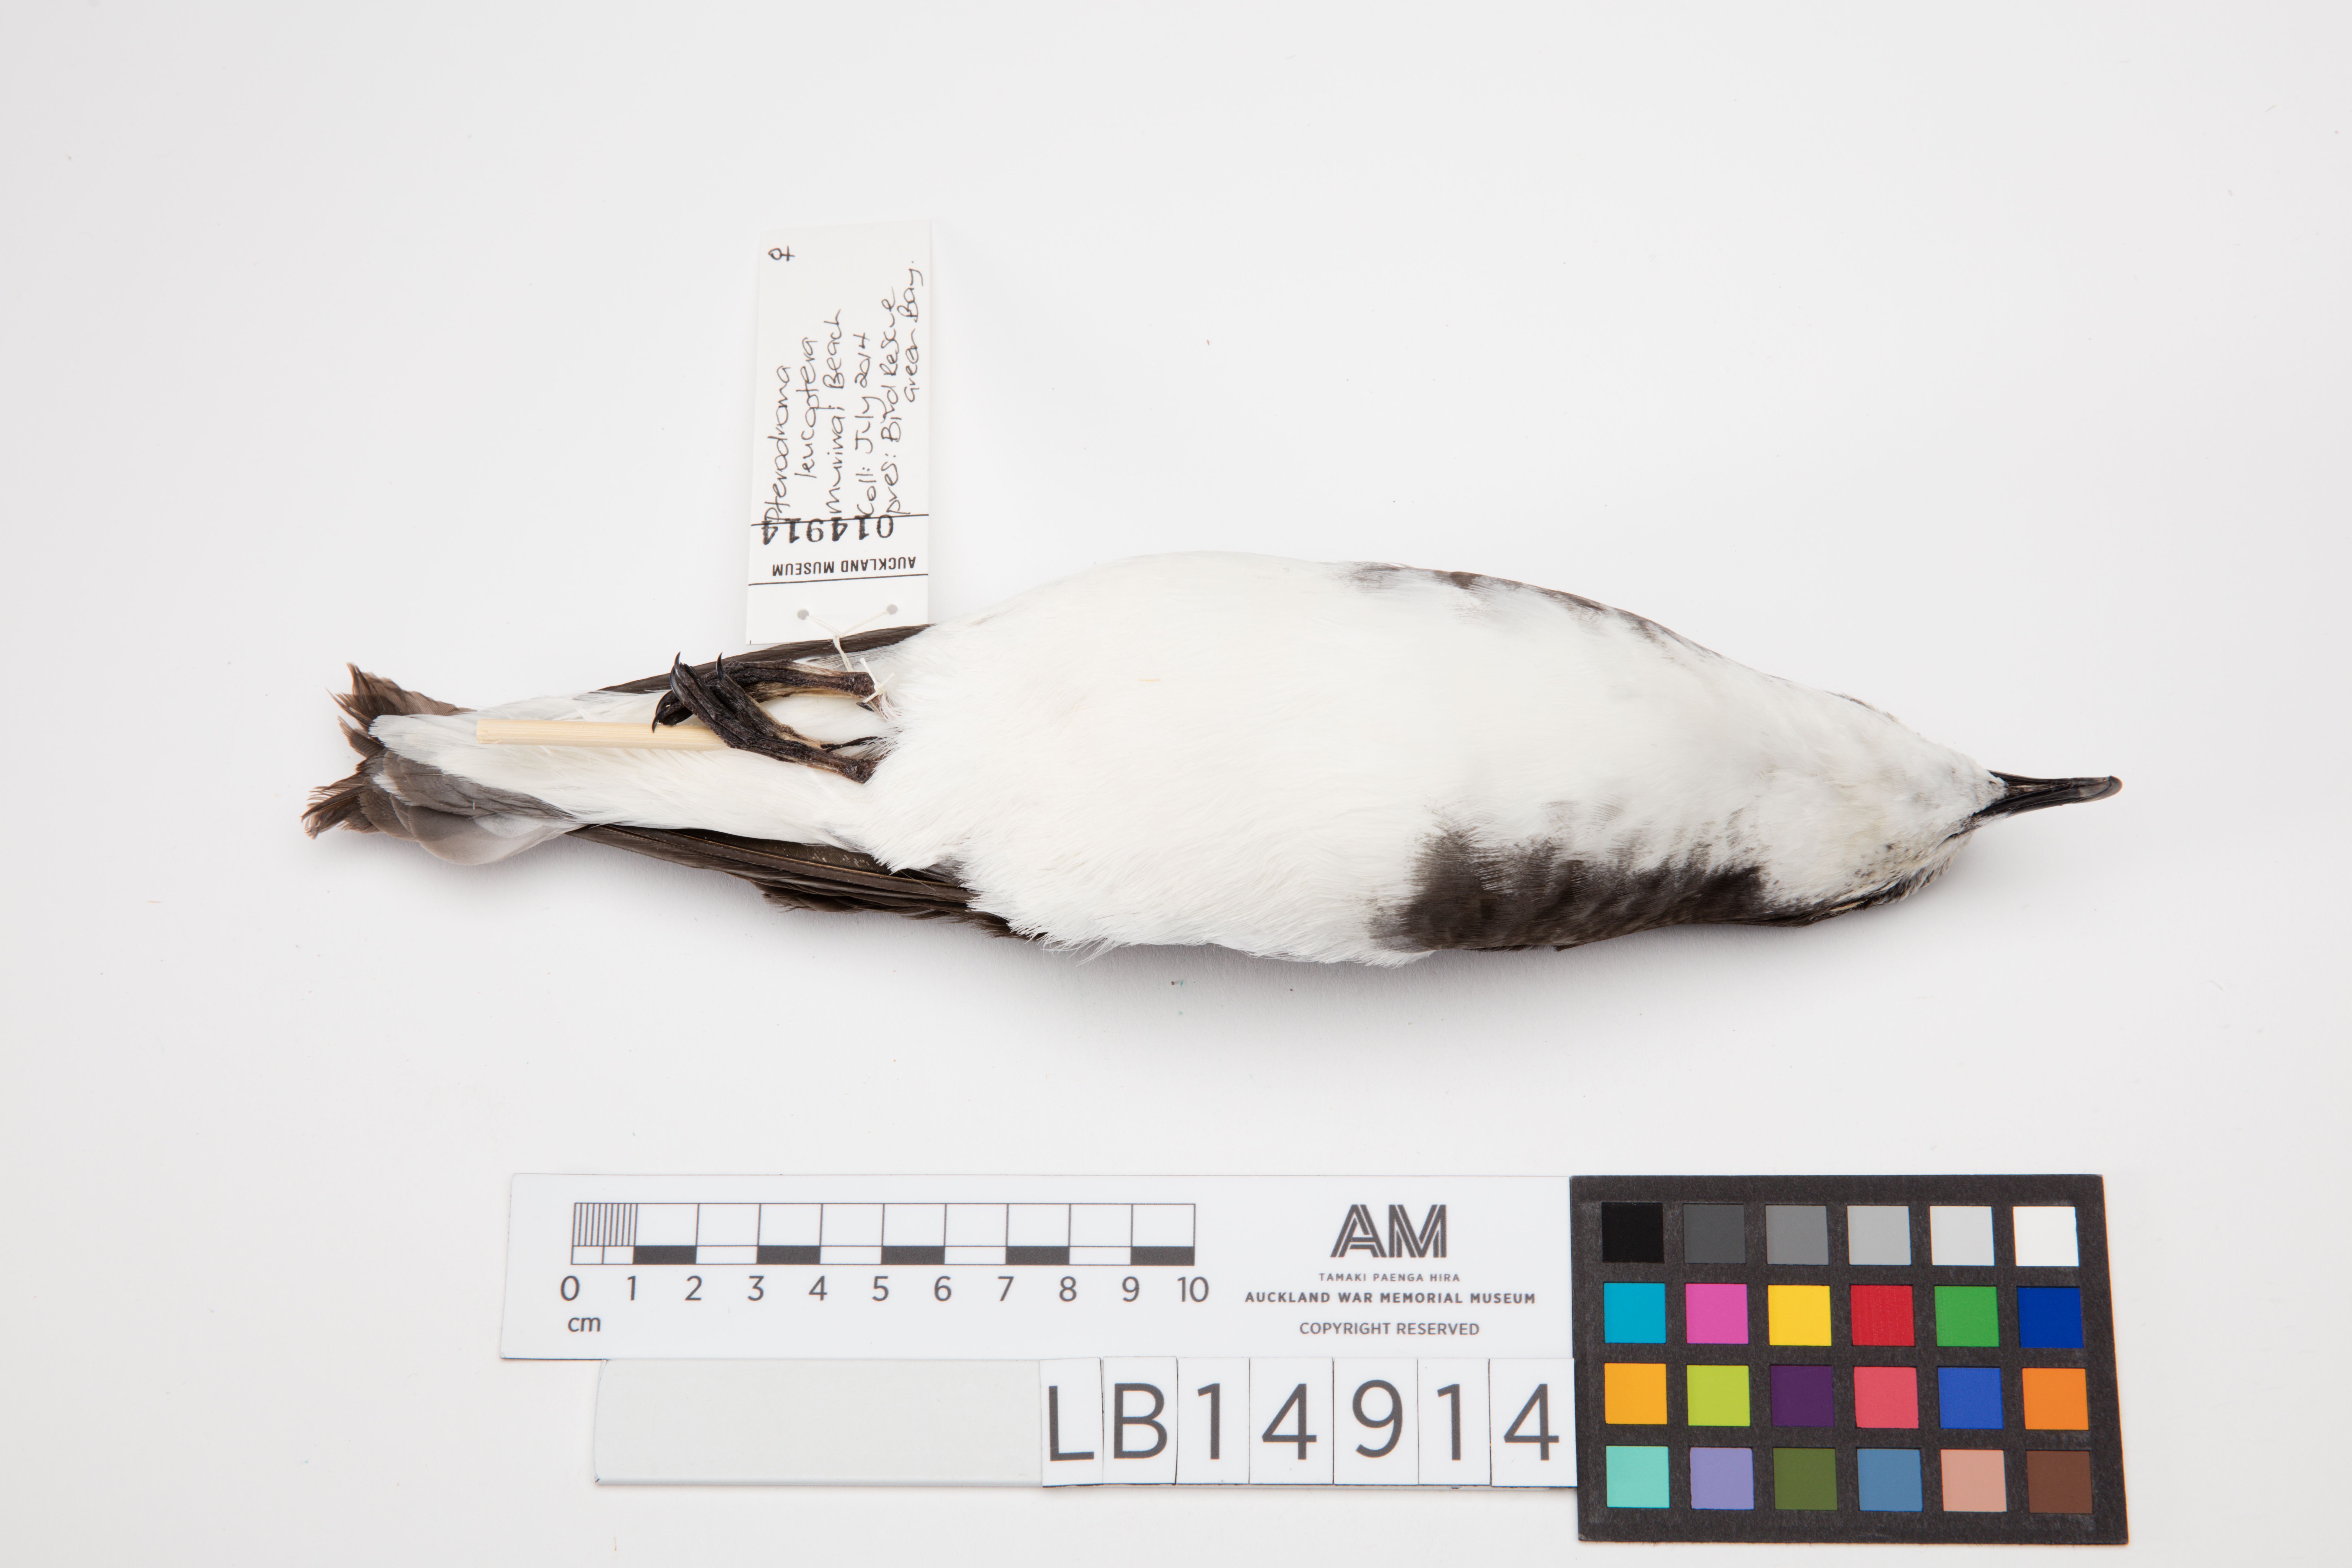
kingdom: Animalia
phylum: Chordata
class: Aves
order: Procellariiformes
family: Procellariidae
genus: Pterodroma
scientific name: Pterodroma leucoptera
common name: Gould's petrel
